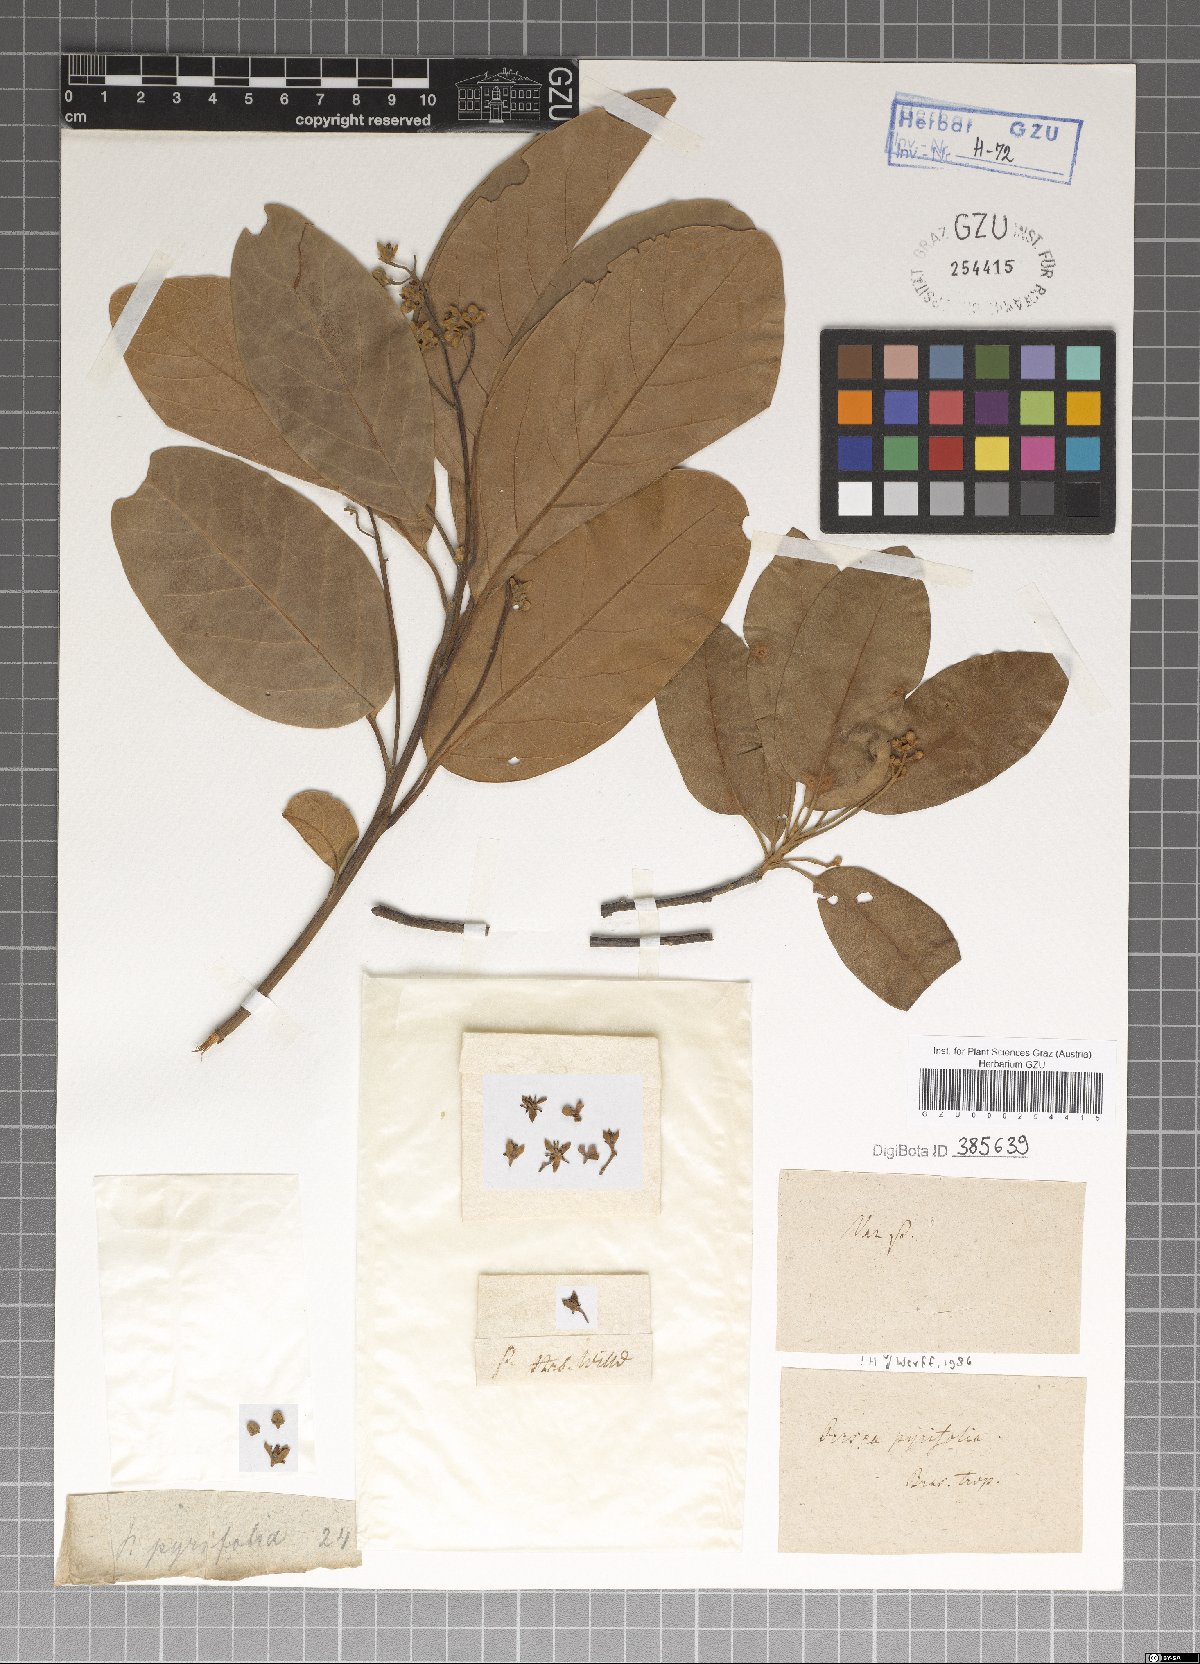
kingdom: Plantae
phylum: Tracheophyta
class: Magnoliopsida
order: Laurales
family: Lauraceae
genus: Persea
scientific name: Persea pyrifolia
